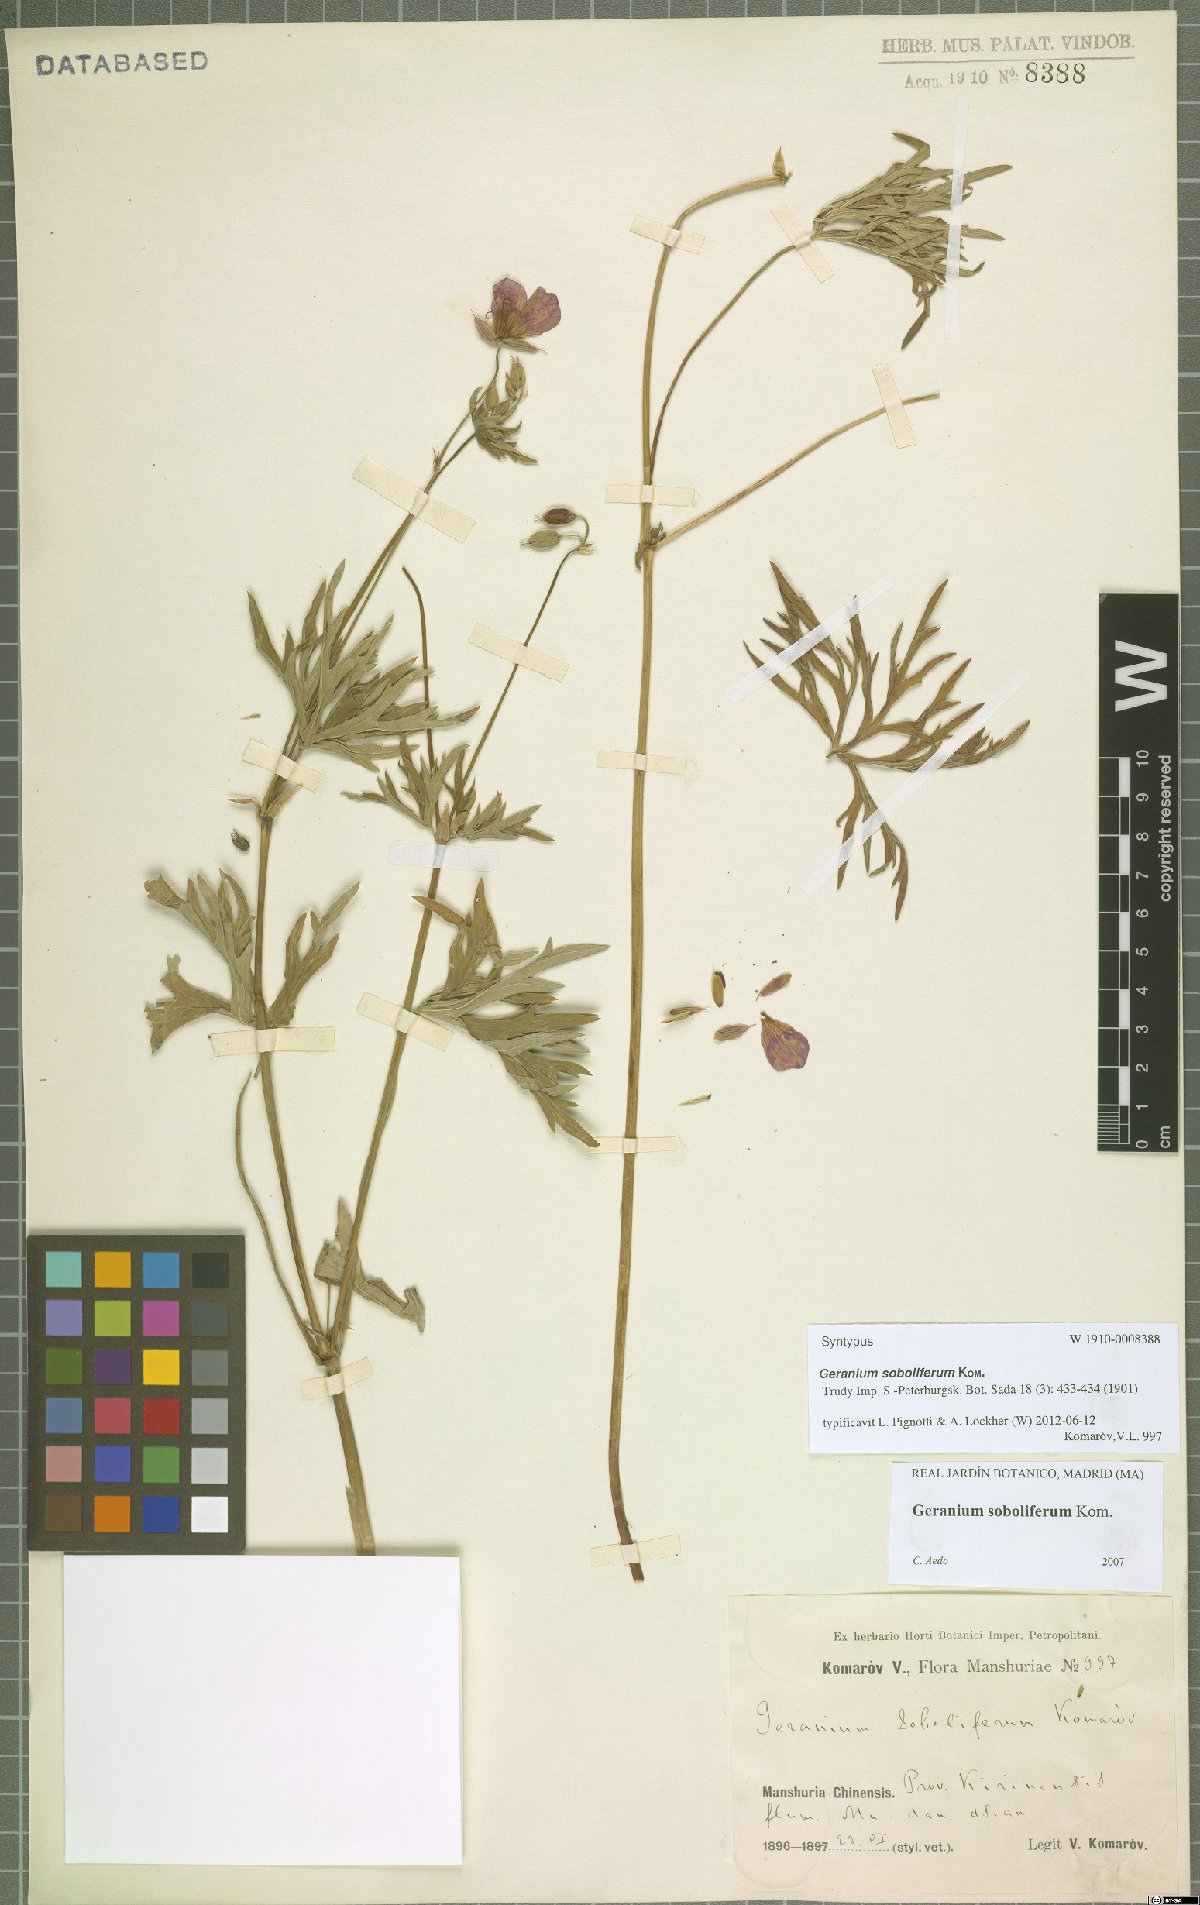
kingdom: Plantae
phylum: Tracheophyta
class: Magnoliopsida
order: Geraniales
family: Geraniaceae
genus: Geranium
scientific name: Geranium soboliferum
